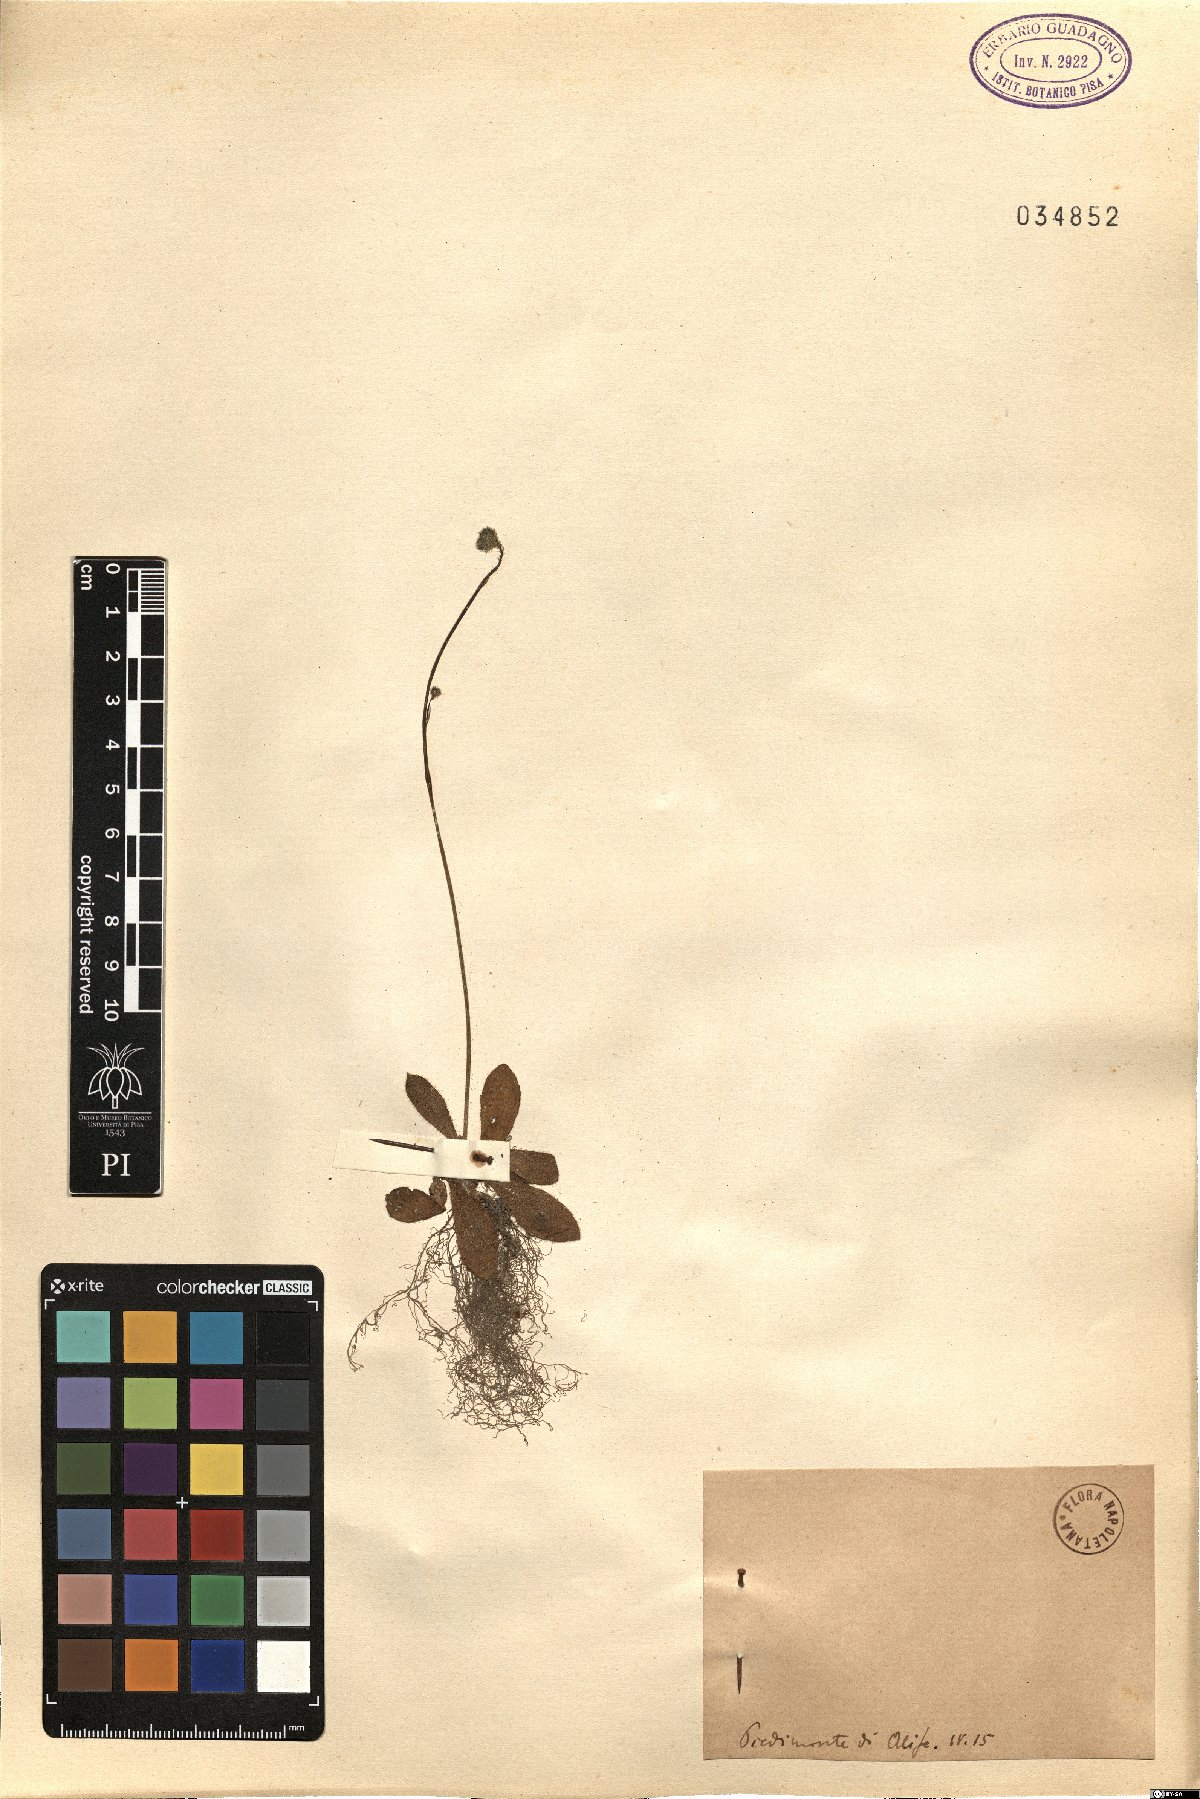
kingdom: Animalia
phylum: Chordata
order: Perciformes
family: Carangidae
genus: Seriola
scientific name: Seriola
